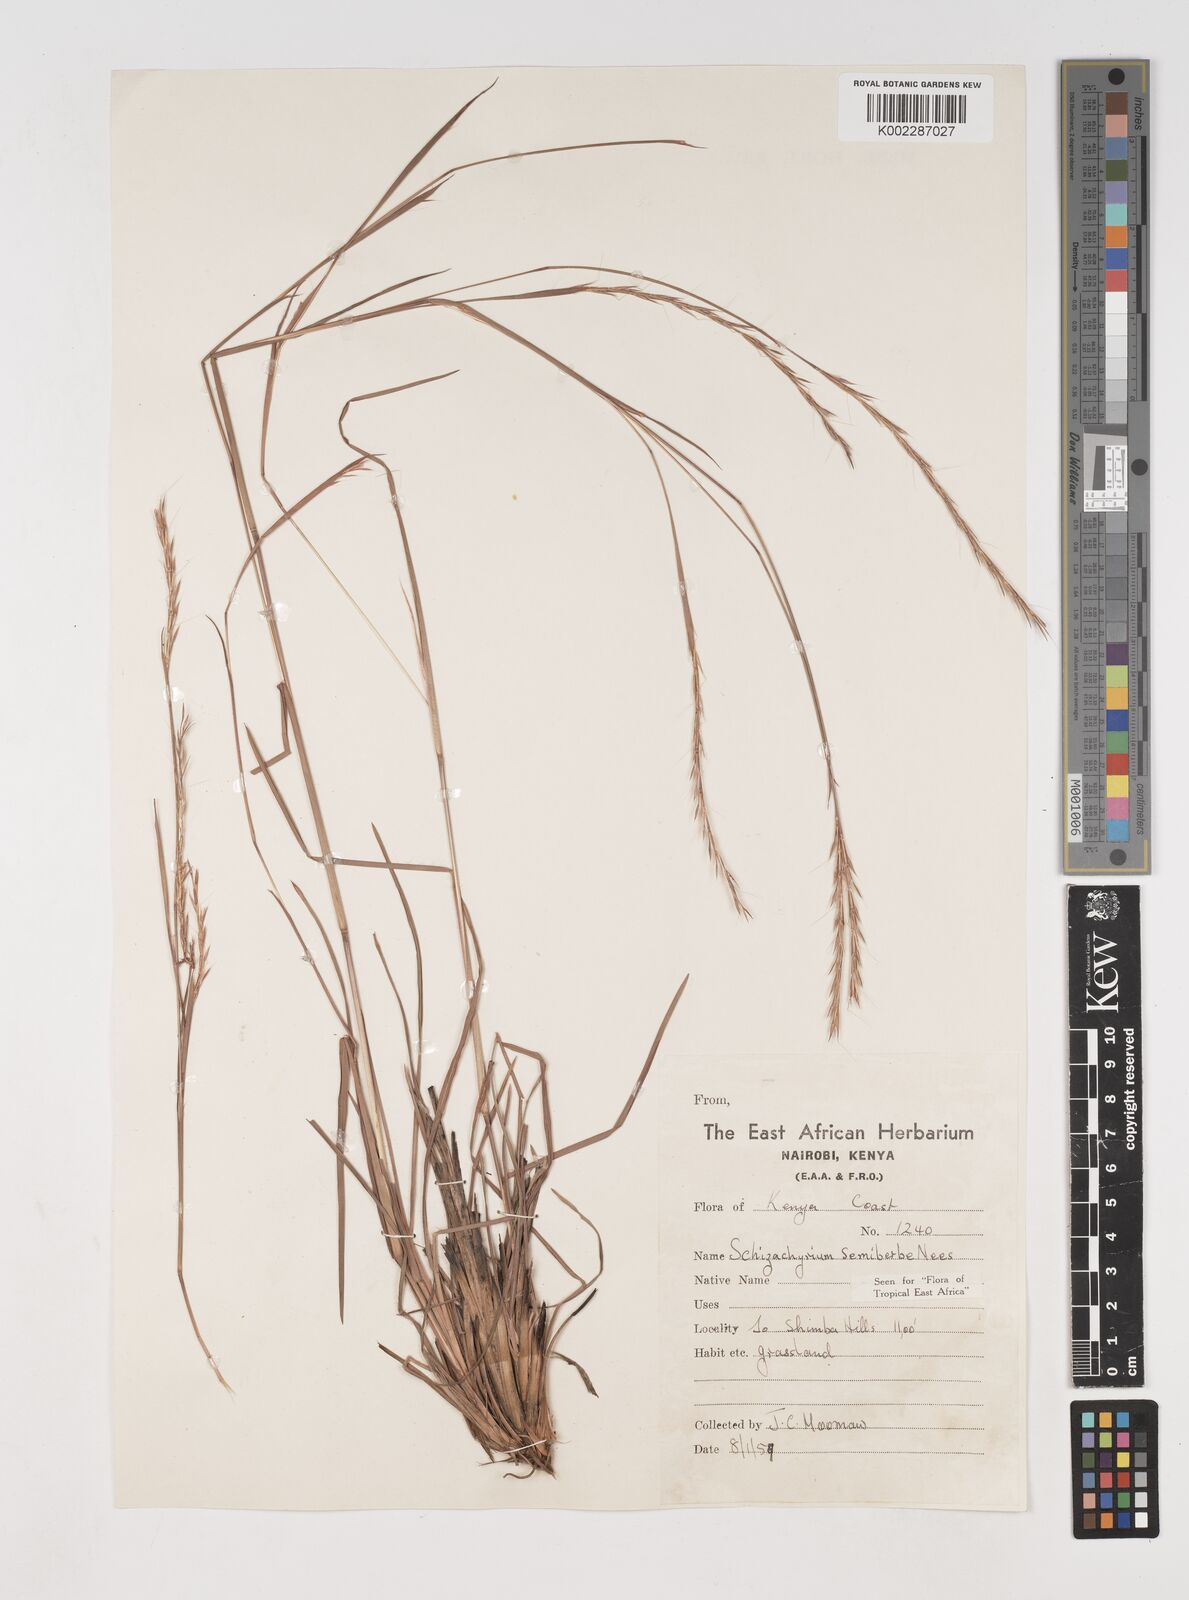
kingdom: Plantae
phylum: Tracheophyta
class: Liliopsida
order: Poales
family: Poaceae
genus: Schizachyrium
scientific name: Schizachyrium sanguineum
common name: Crimson bluestem
